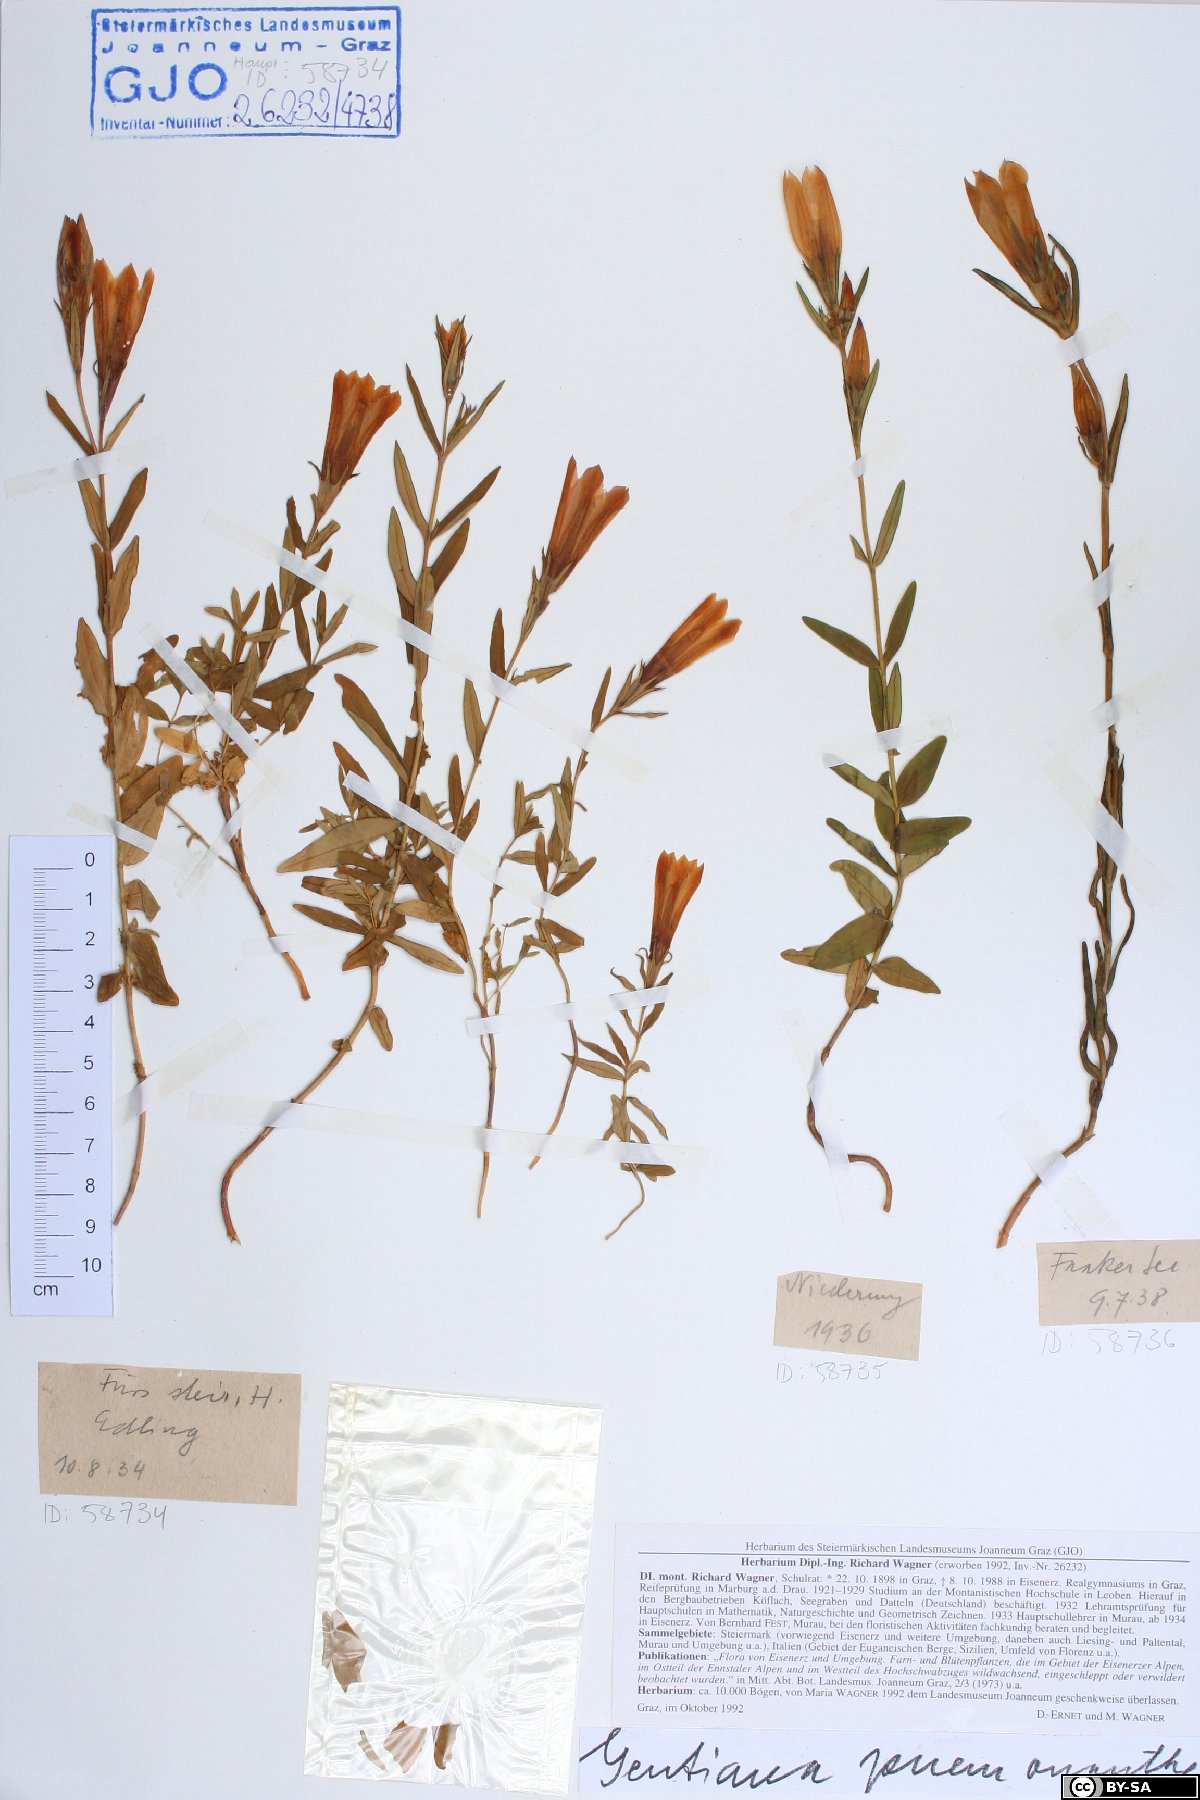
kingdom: Plantae
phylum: Tracheophyta
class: Magnoliopsida
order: Gentianales
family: Gentianaceae
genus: Gentiana
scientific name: Gentiana pneumonanthe
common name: Marsh gentian
